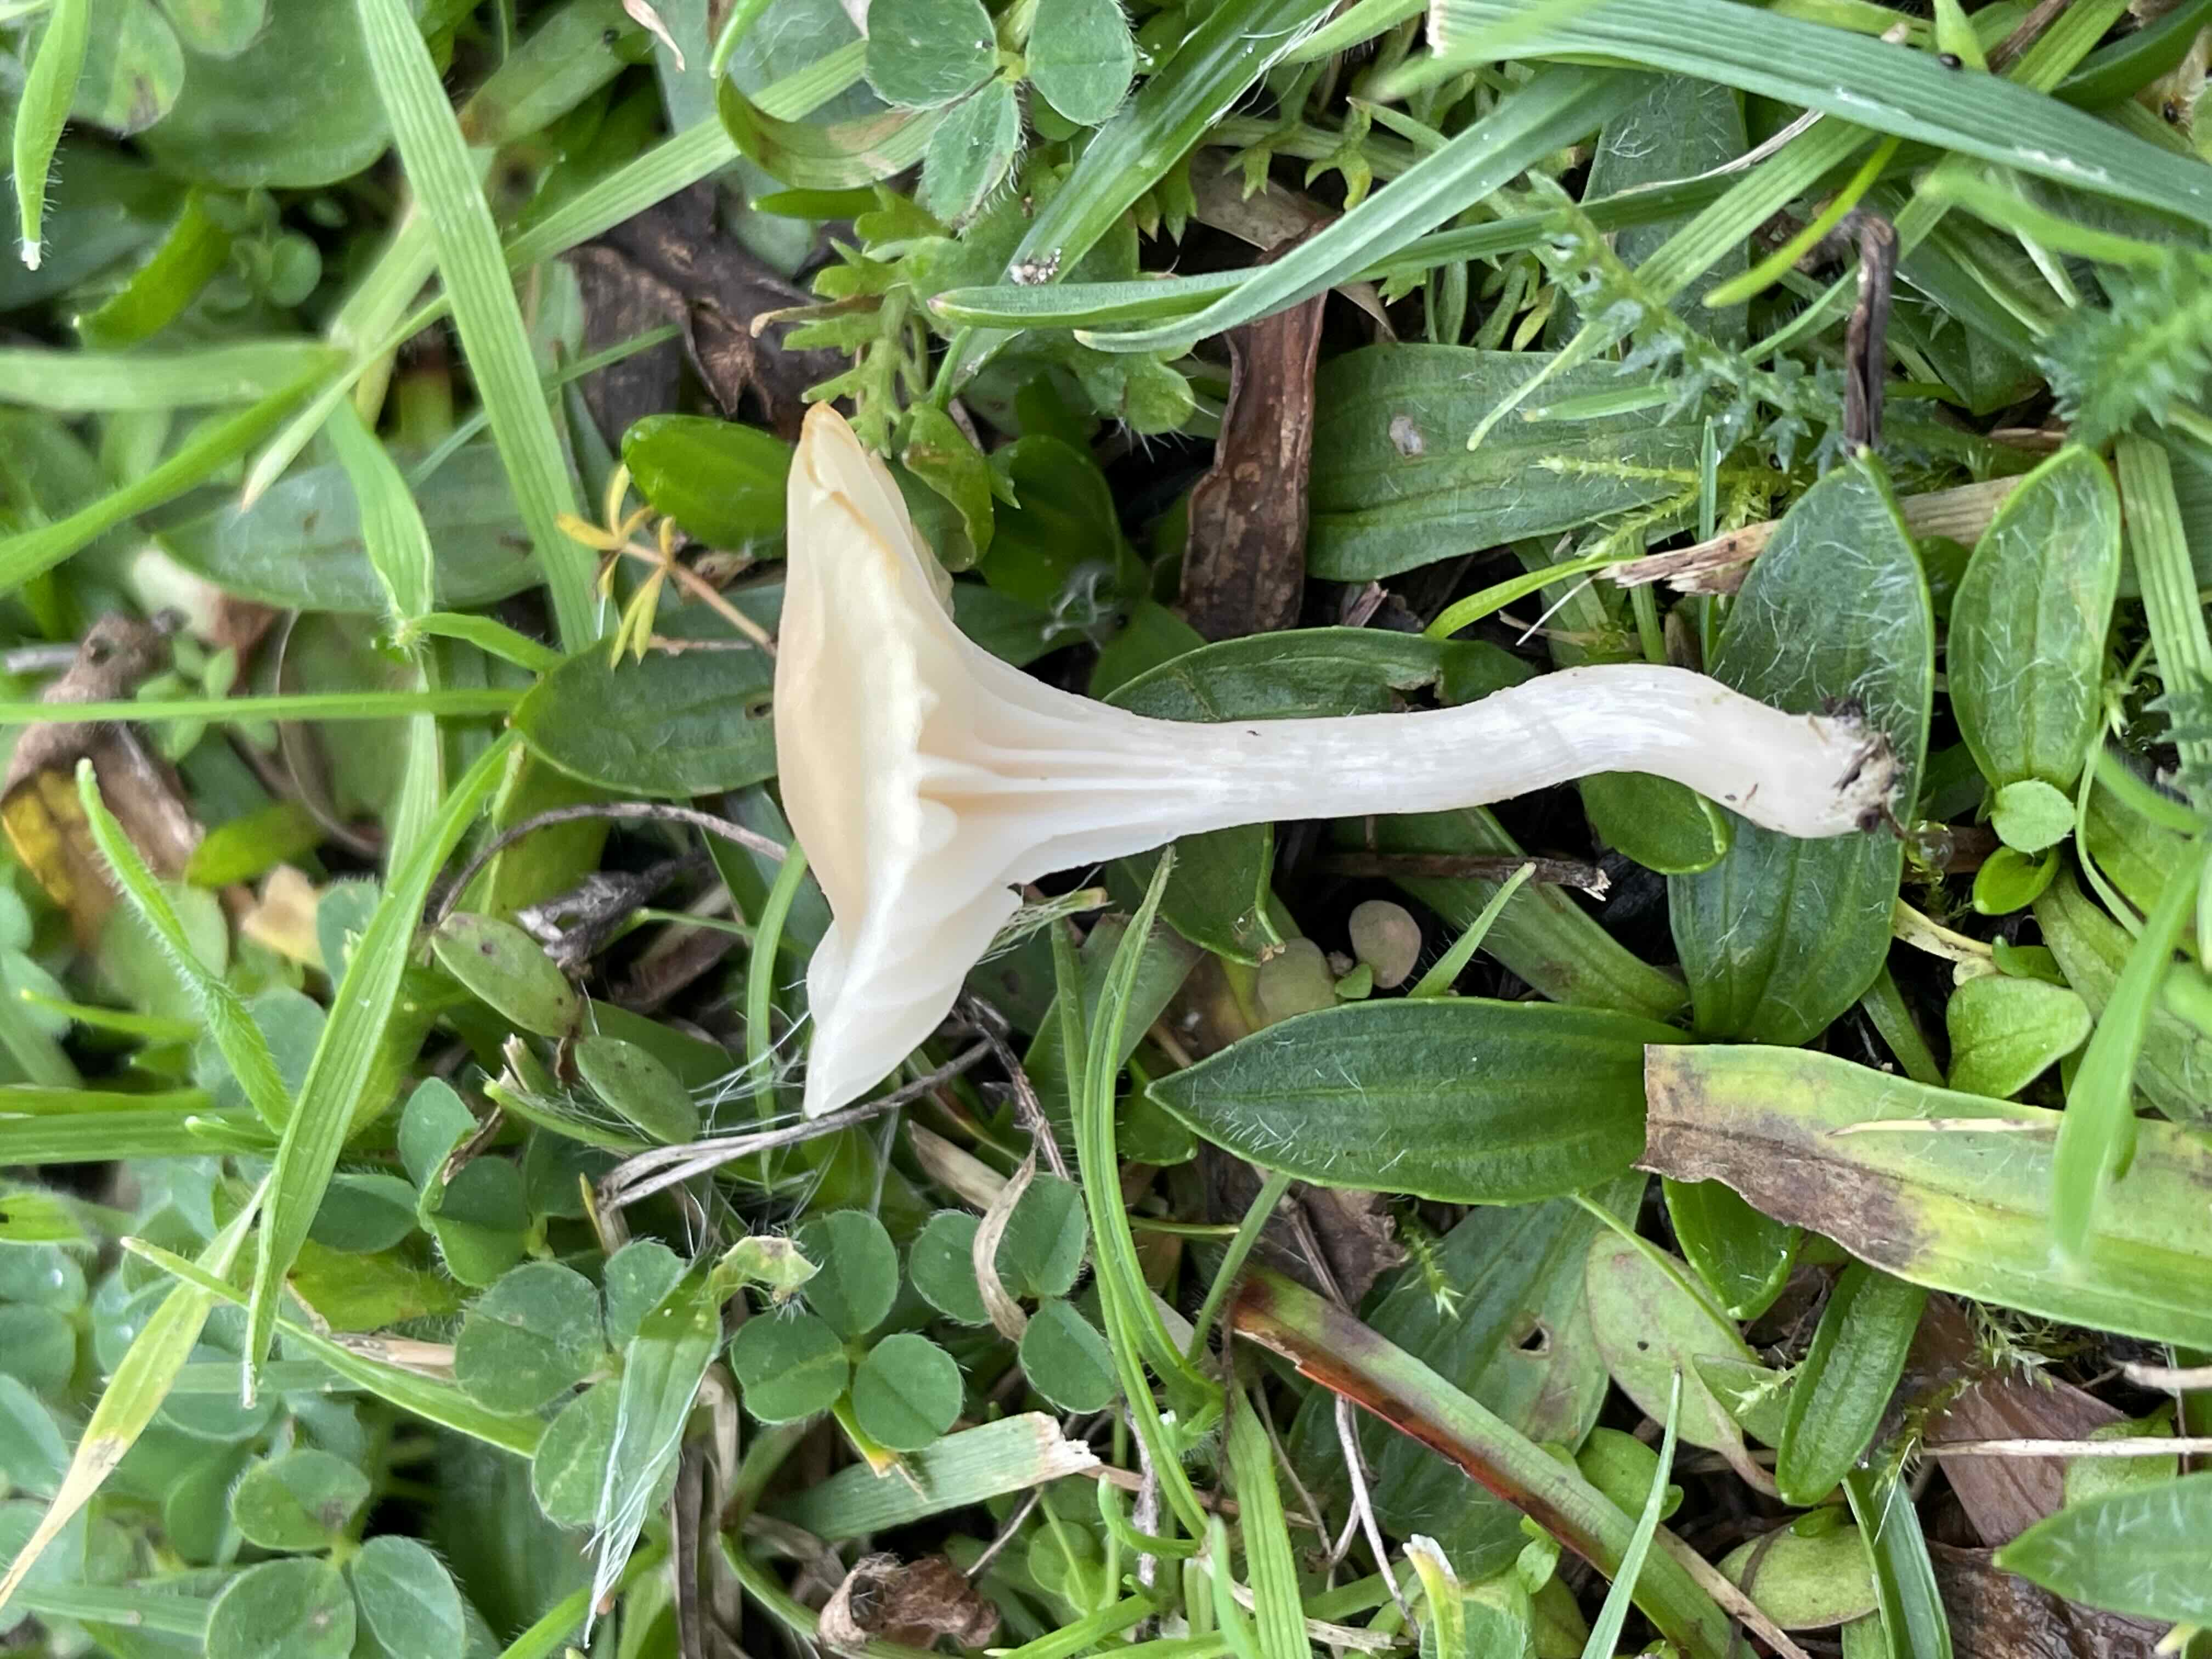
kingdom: Fungi
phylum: Basidiomycota
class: Agaricomycetes
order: Agaricales
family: Hygrophoraceae
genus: Cuphophyllus
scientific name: Cuphophyllus
